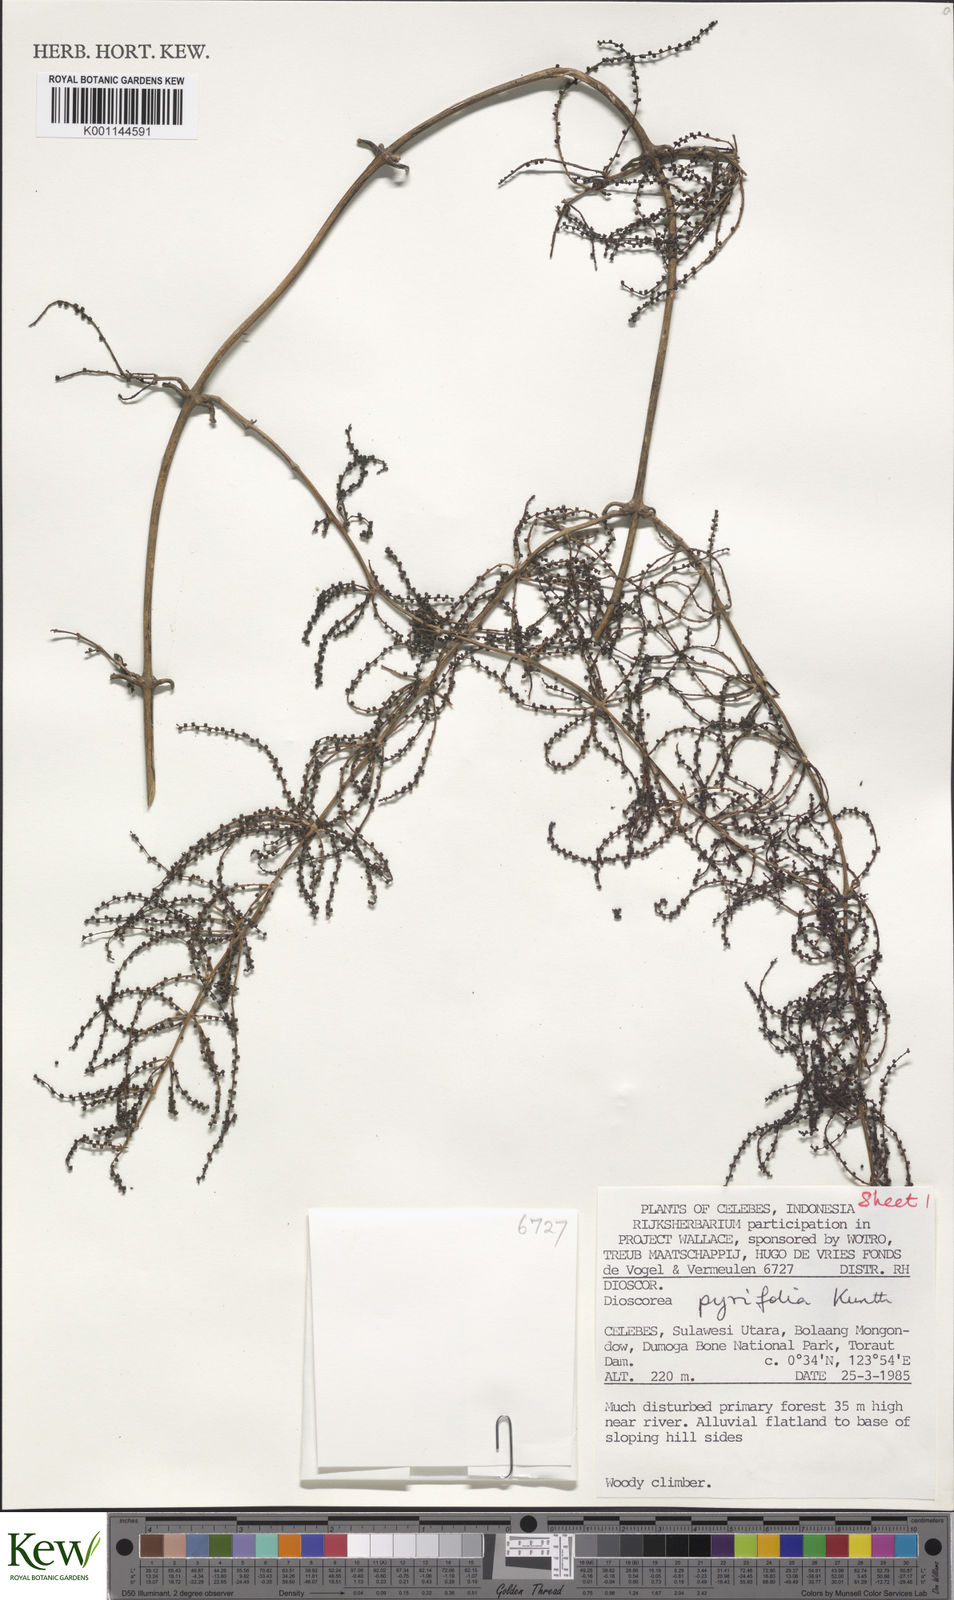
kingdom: Plantae
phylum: Tracheophyta
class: Liliopsida
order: Dioscoreales
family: Dioscoreaceae
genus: Dioscorea
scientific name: Dioscorea pyrifolia
